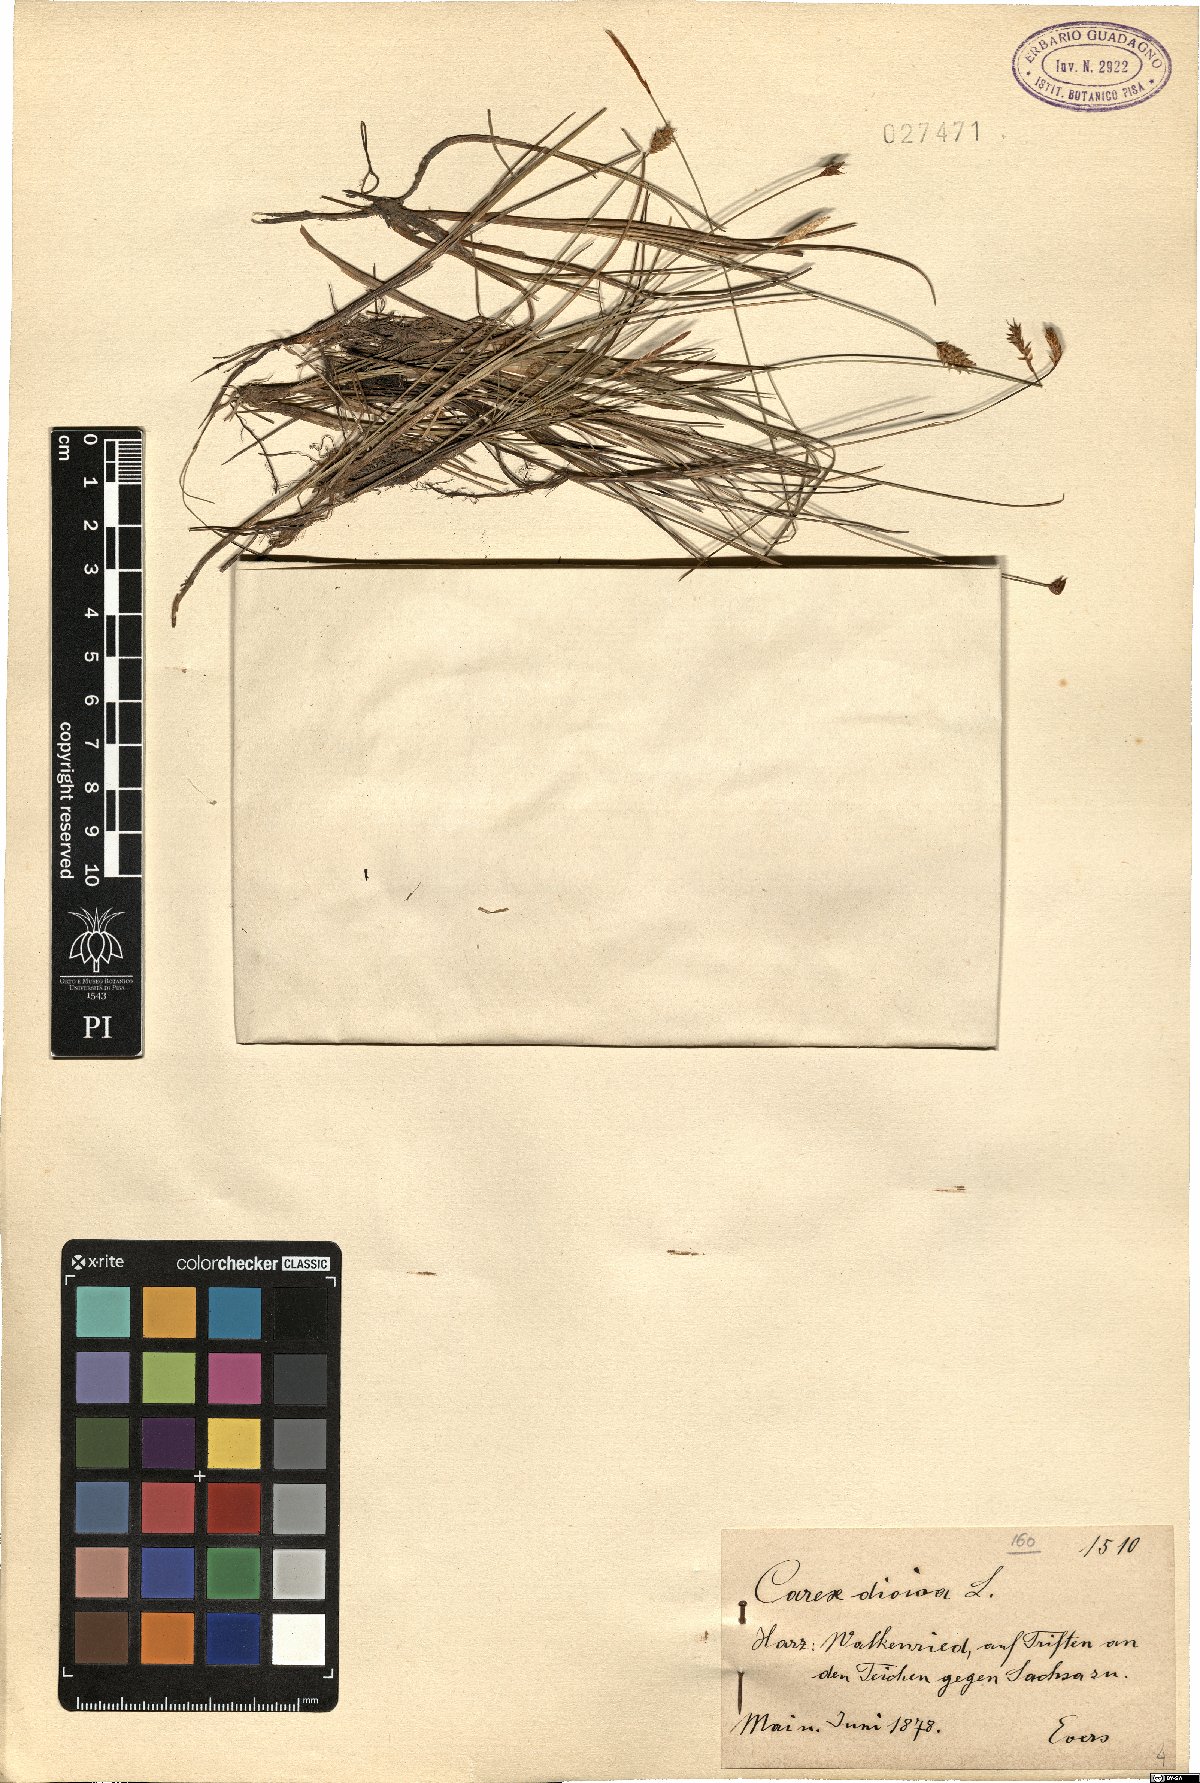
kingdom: Plantae
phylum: Tracheophyta
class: Liliopsida
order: Poales
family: Cyperaceae
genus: Carex
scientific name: Carex dioica
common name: Dioecious sedge
